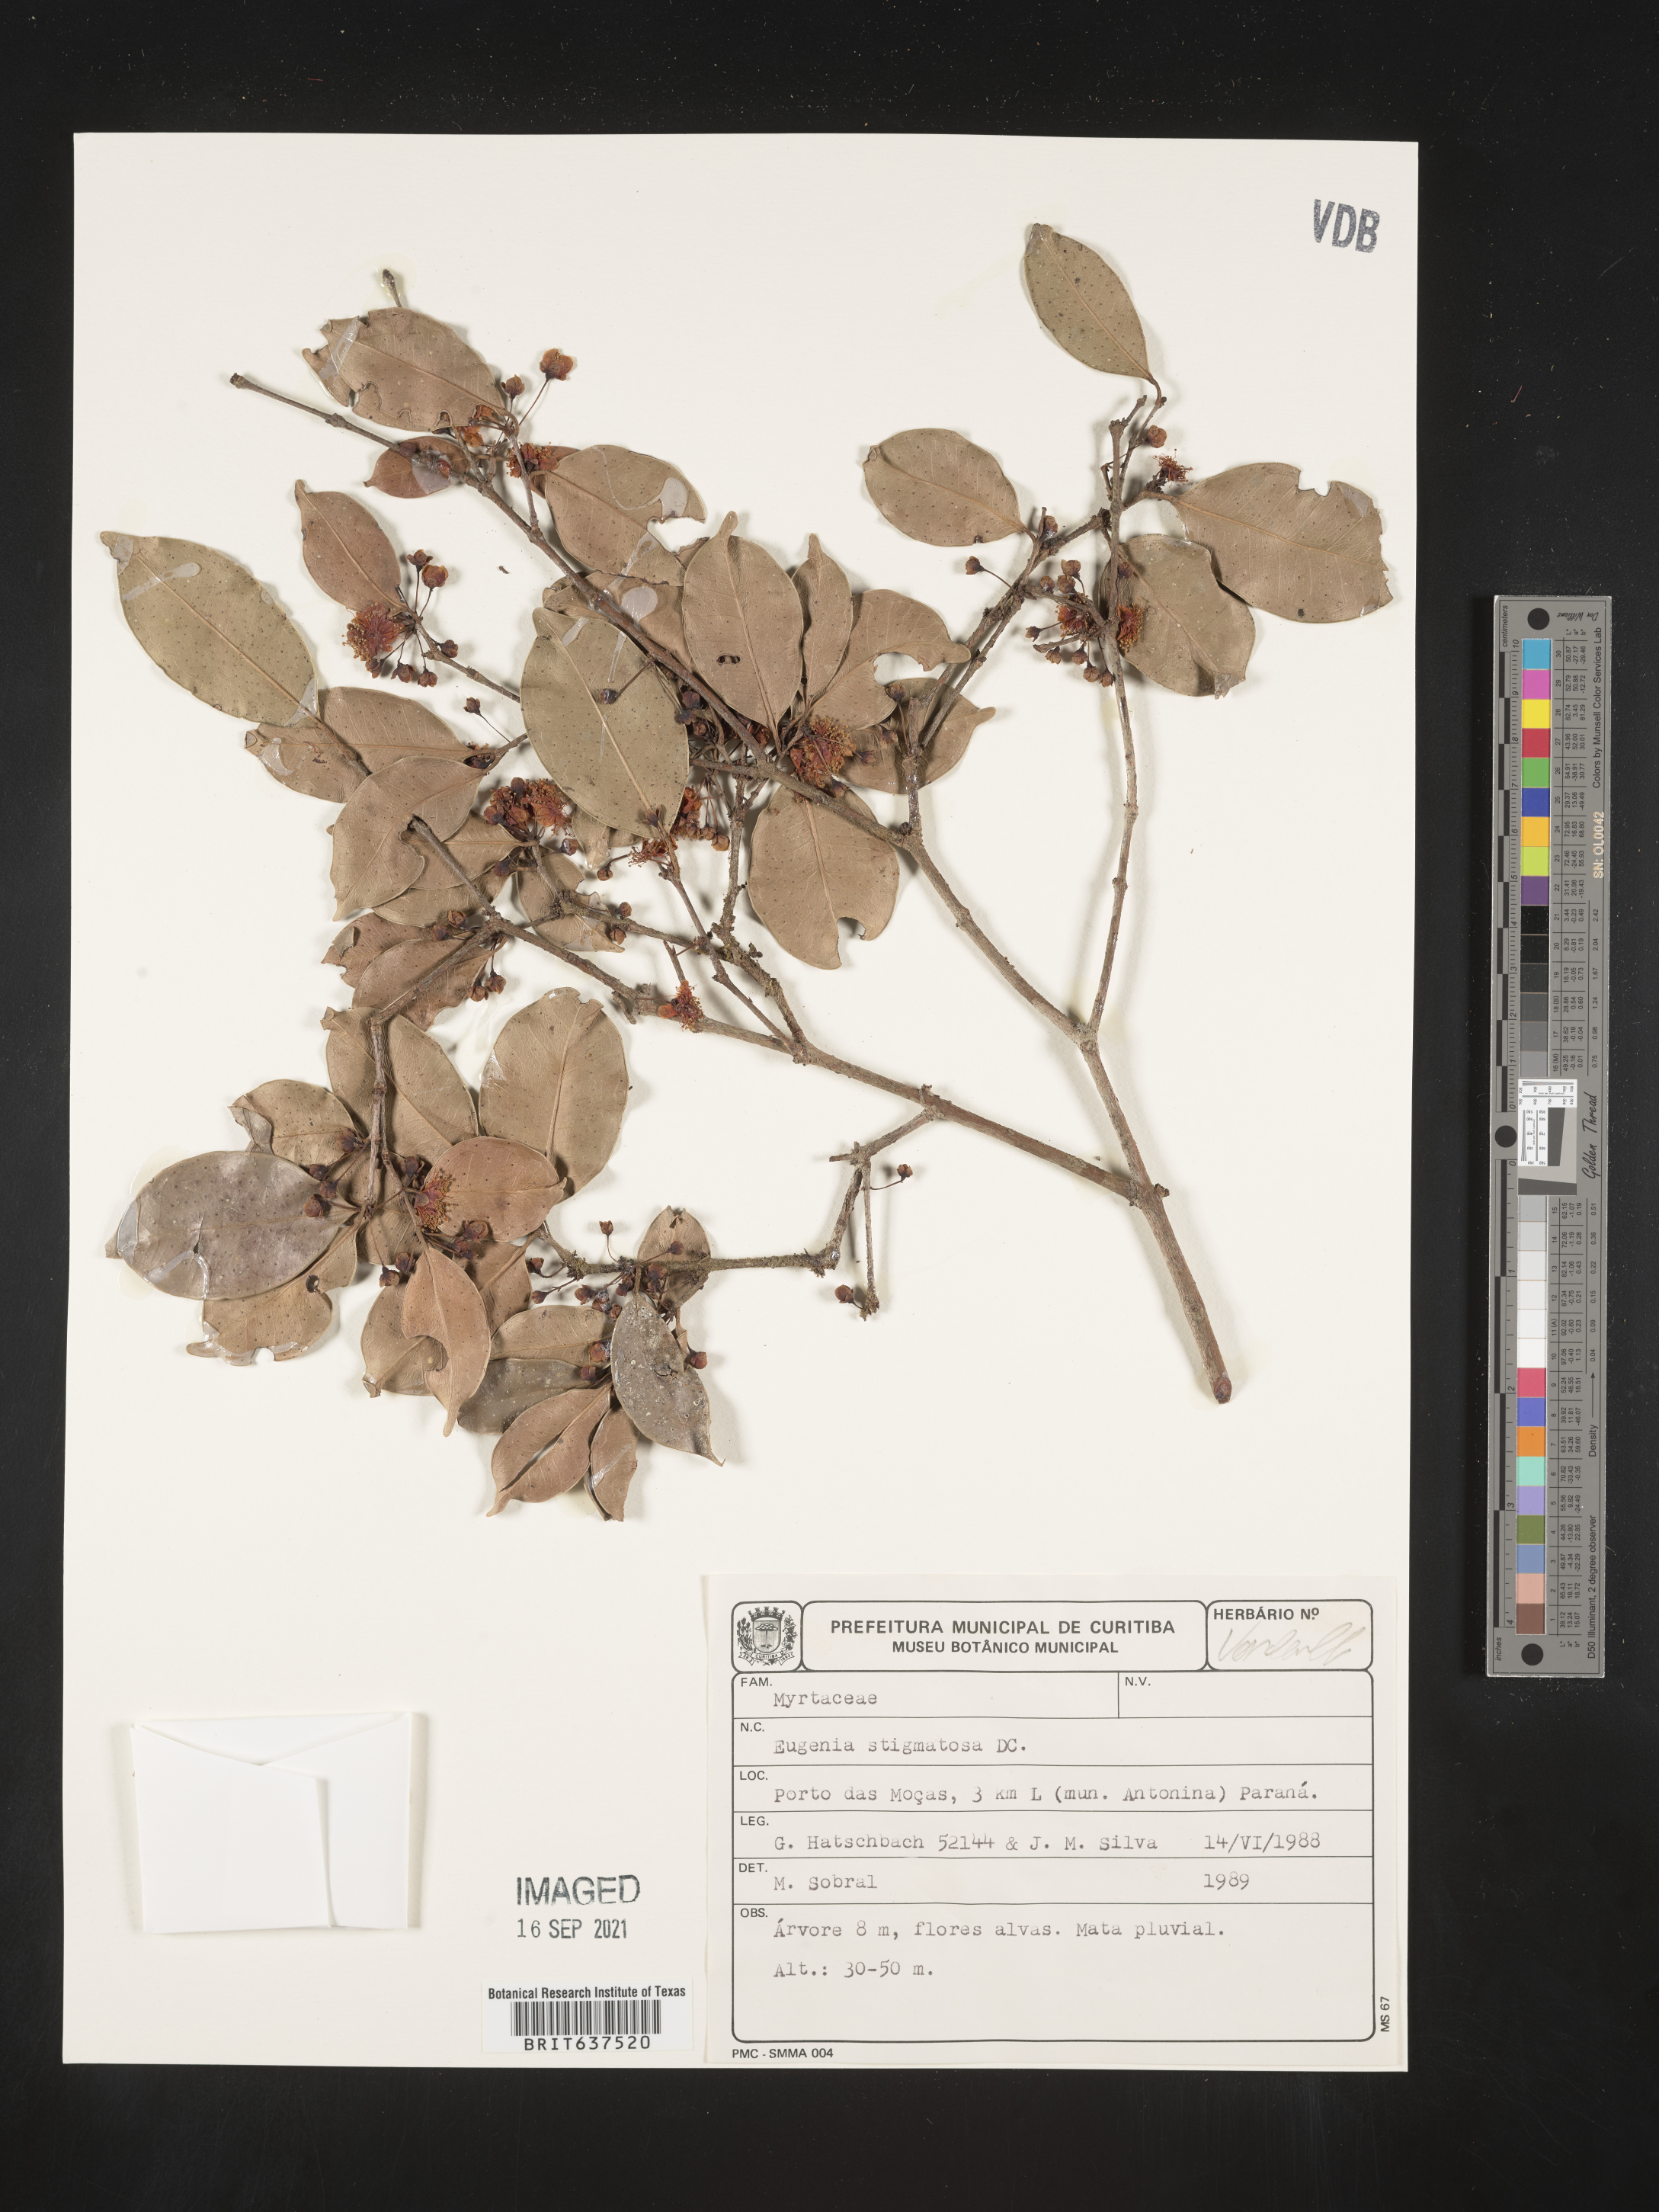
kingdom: Plantae
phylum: Tracheophyta
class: Magnoliopsida
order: Myrtales
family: Myrtaceae
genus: Eugenia
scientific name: Eugenia
